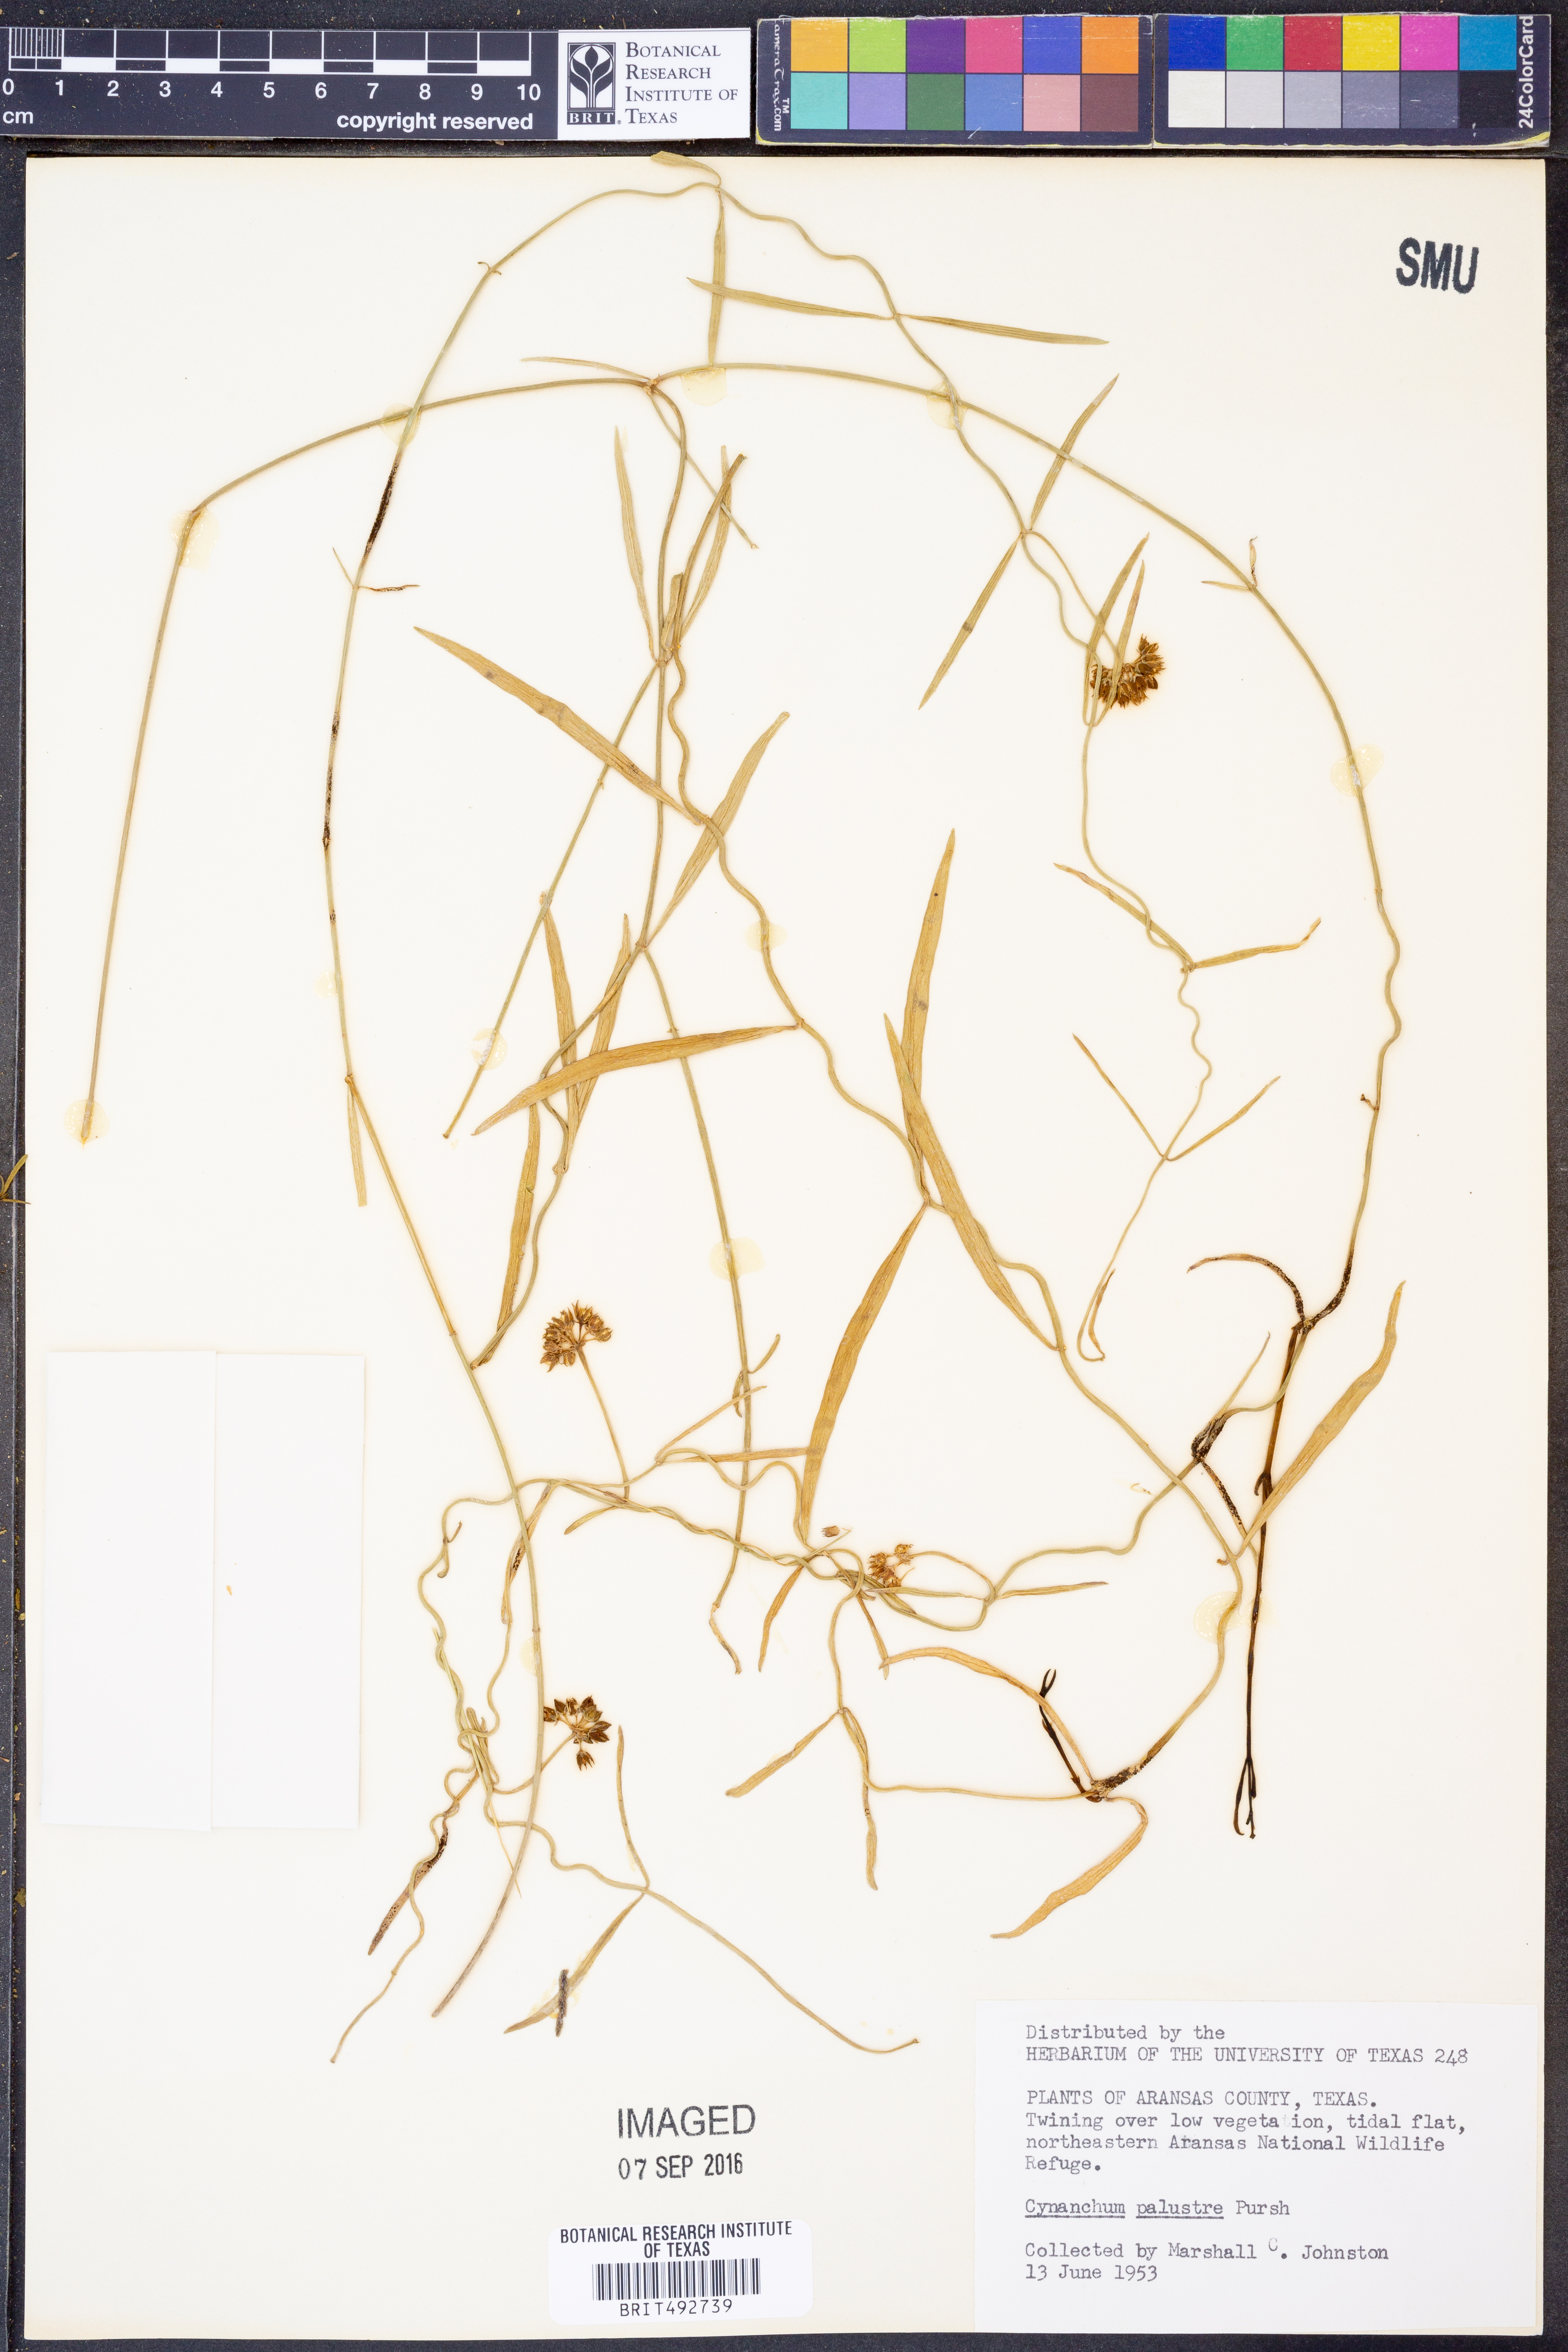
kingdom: Plantae
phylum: Tracheophyta
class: Magnoliopsida
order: Gentianales
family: Apocynaceae
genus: Pattalias
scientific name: Pattalias palustris
